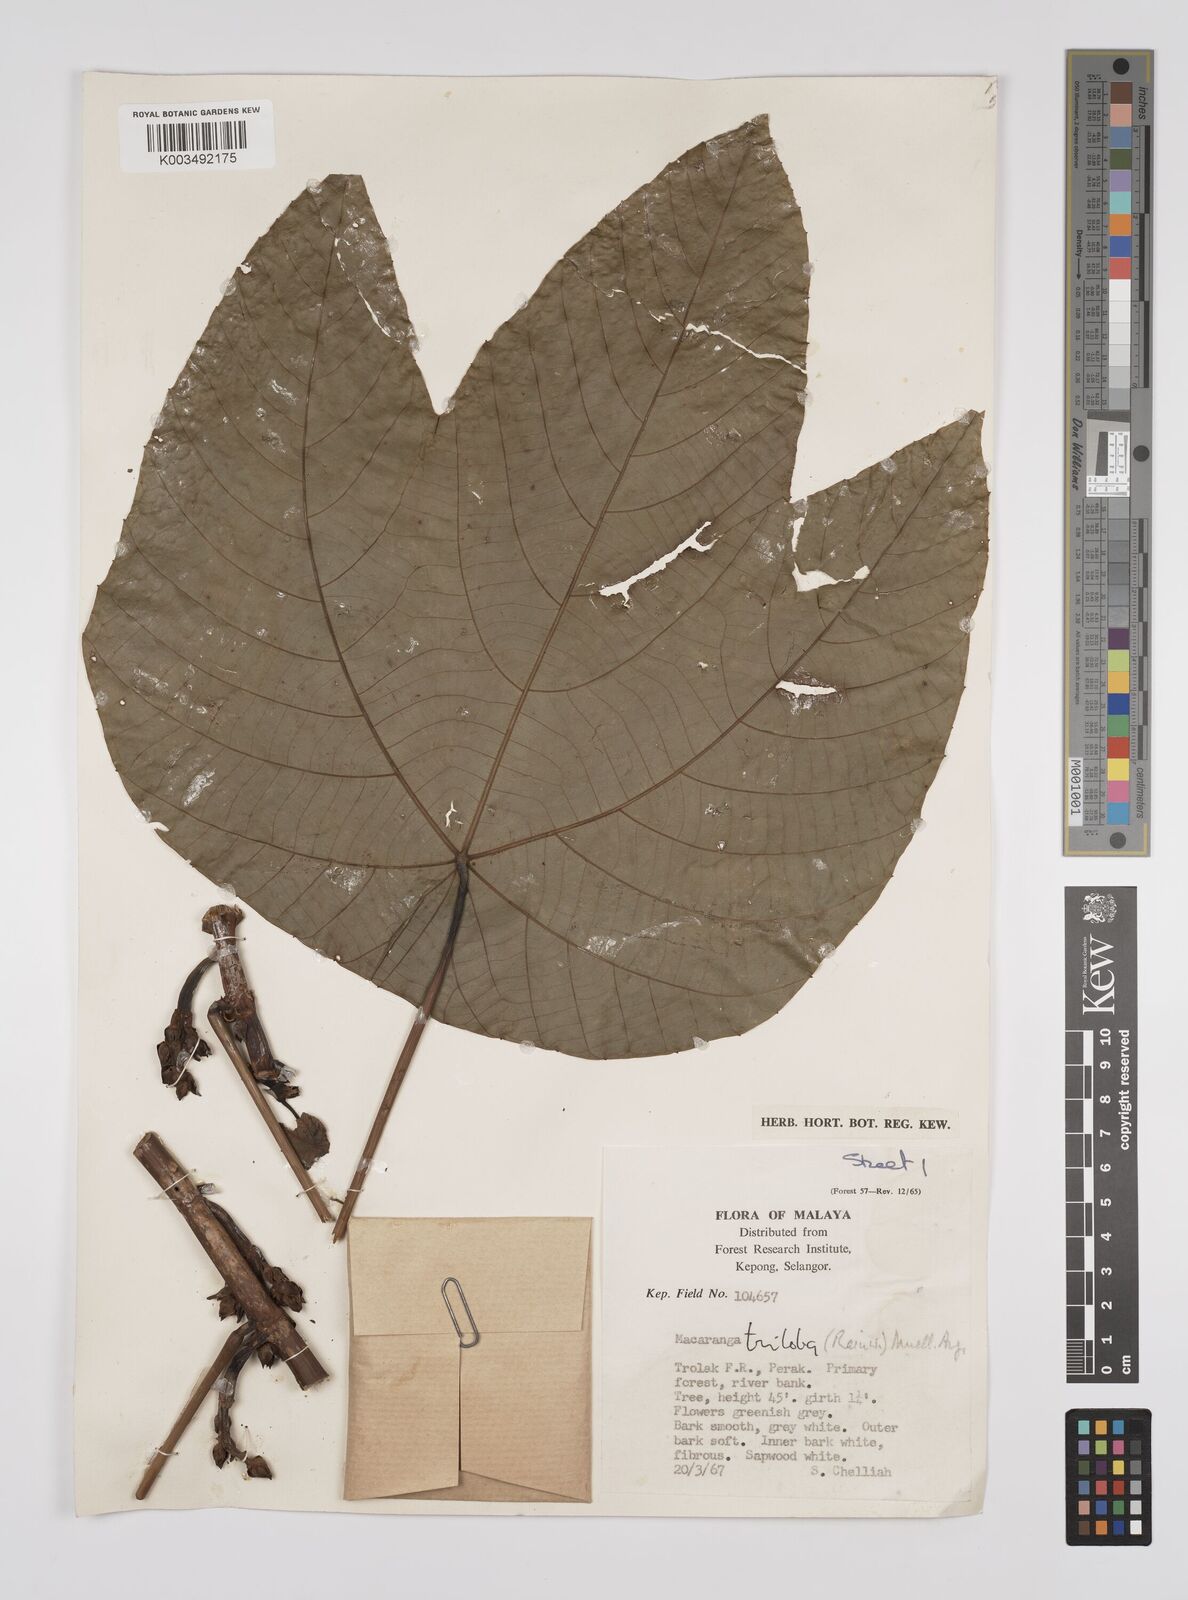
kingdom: Plantae
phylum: Tracheophyta
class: Magnoliopsida
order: Malpighiales
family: Euphorbiaceae
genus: Macaranga
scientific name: Macaranga triloba
